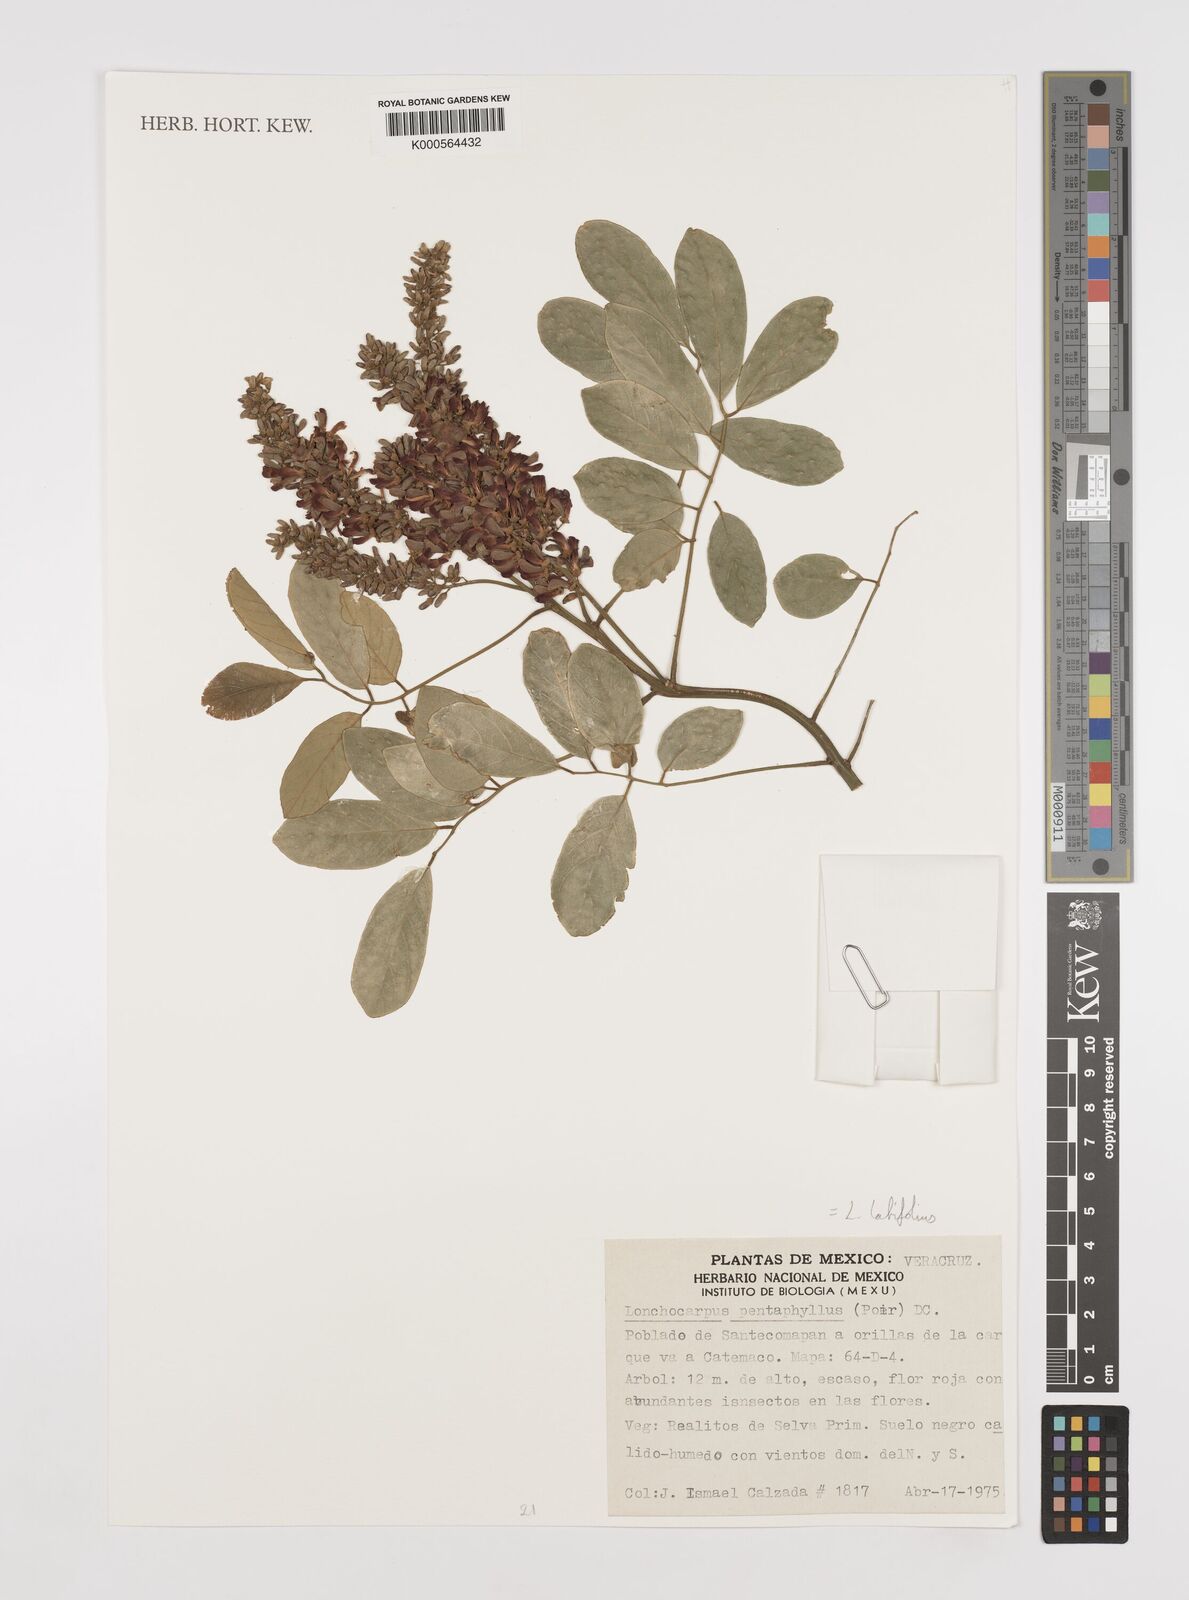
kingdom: Plantae
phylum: Tracheophyta
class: Magnoliopsida
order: Fabales
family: Fabaceae
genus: Lonchocarpus
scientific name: Lonchocarpus heptaphyllus
